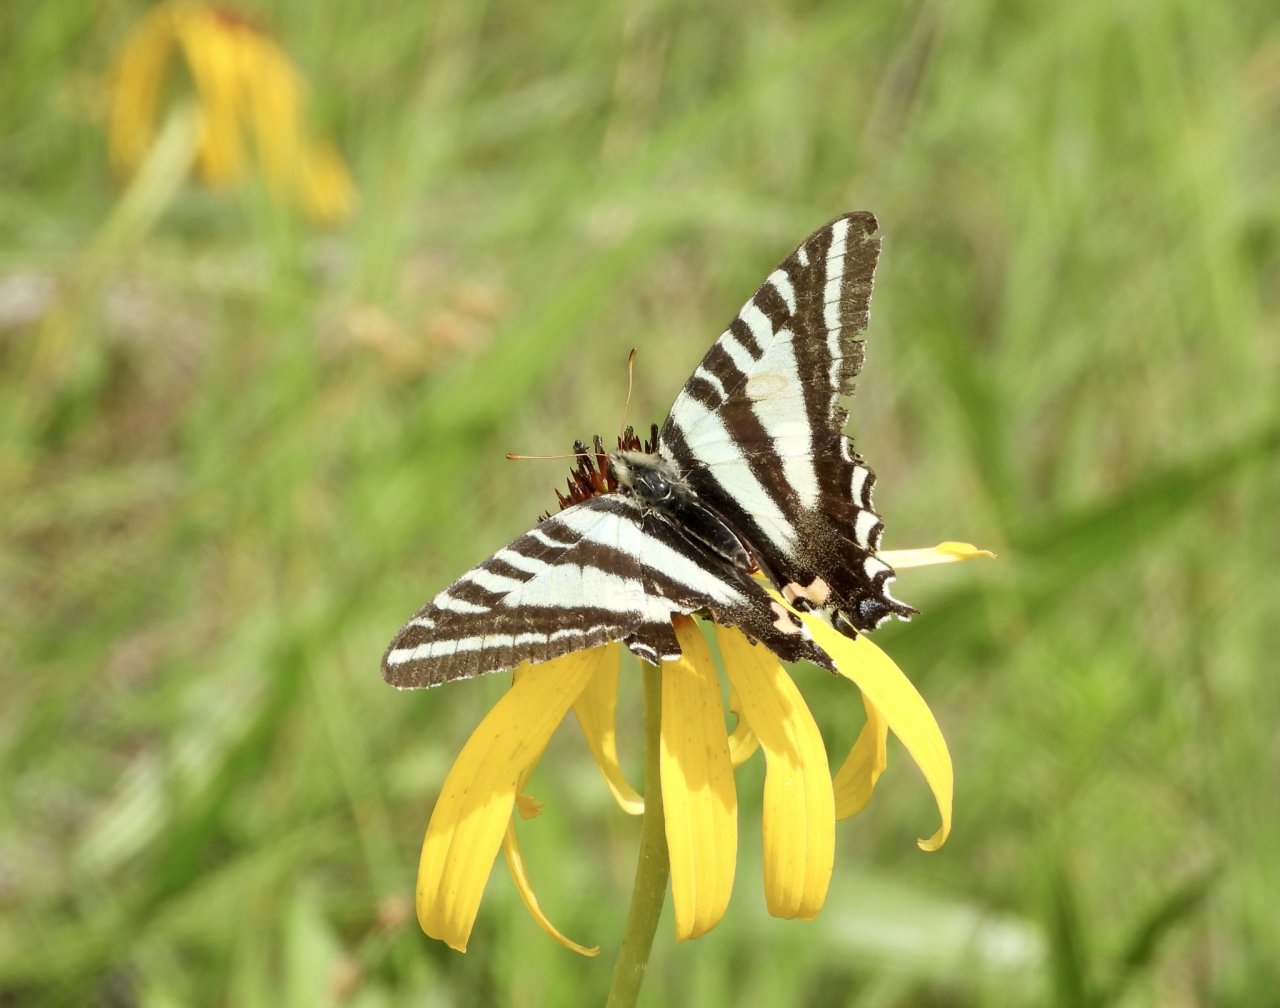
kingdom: Animalia
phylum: Arthropoda
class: Insecta
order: Lepidoptera
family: Papilionidae
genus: Protographium
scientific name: Protographium marcellus
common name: Zebra Swallowtail
